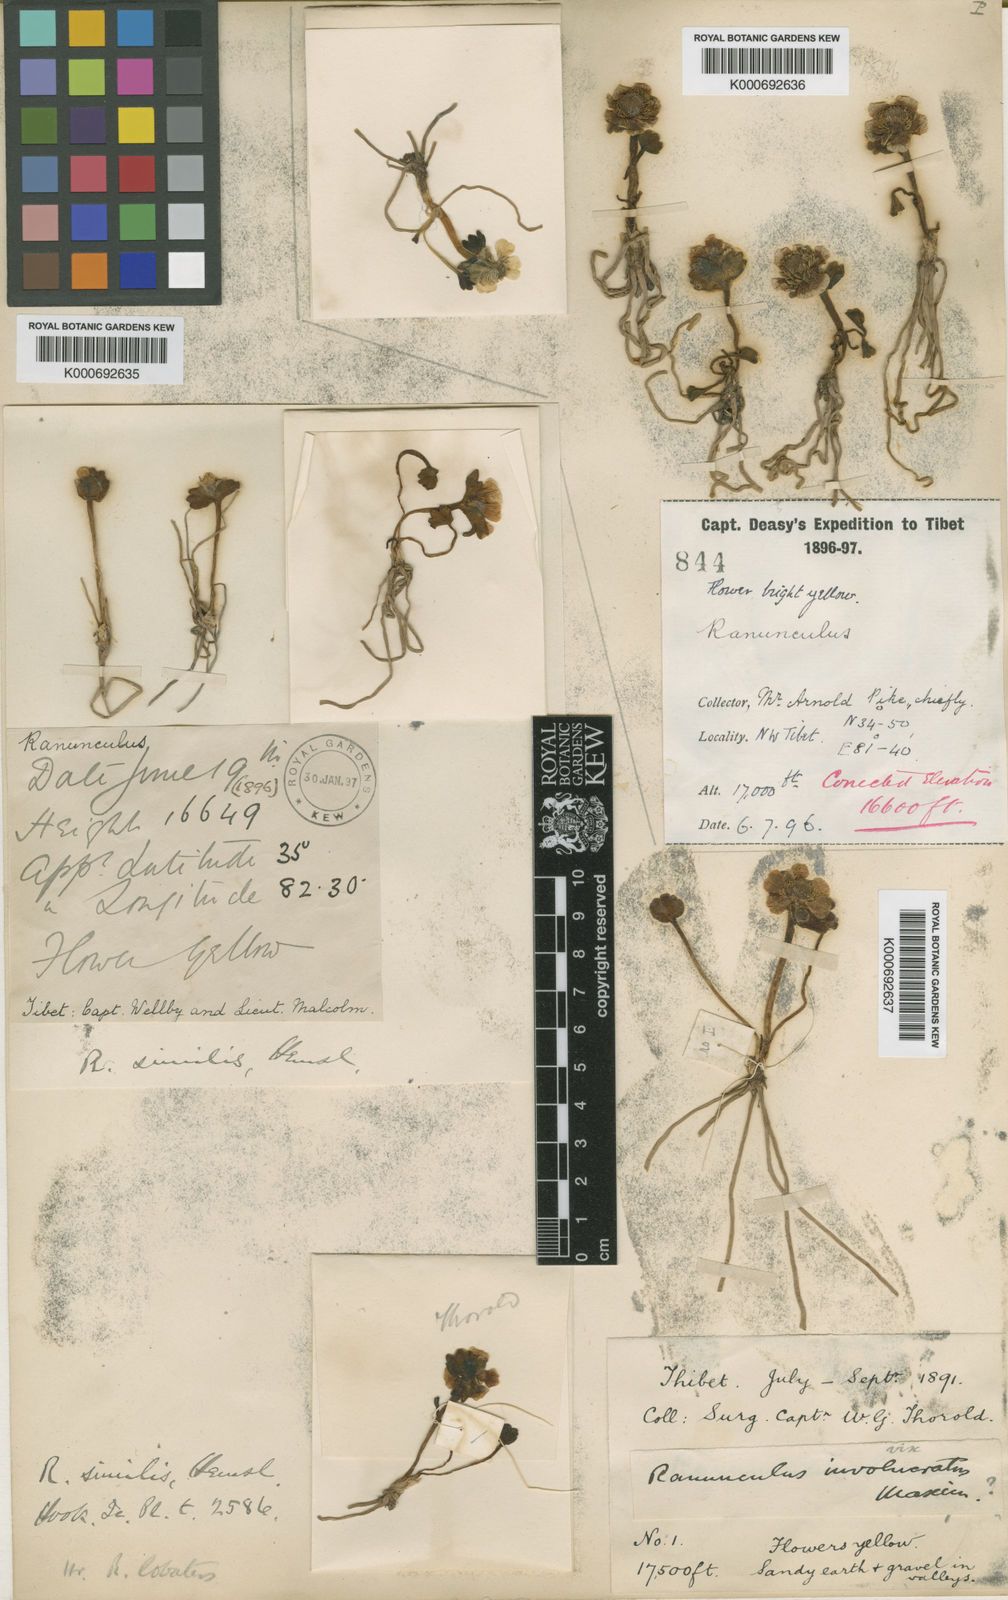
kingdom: Plantae
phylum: Tracheophyta
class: Magnoliopsida
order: Ranunculales
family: Ranunculaceae
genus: Ranunculus
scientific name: Ranunculus similis
